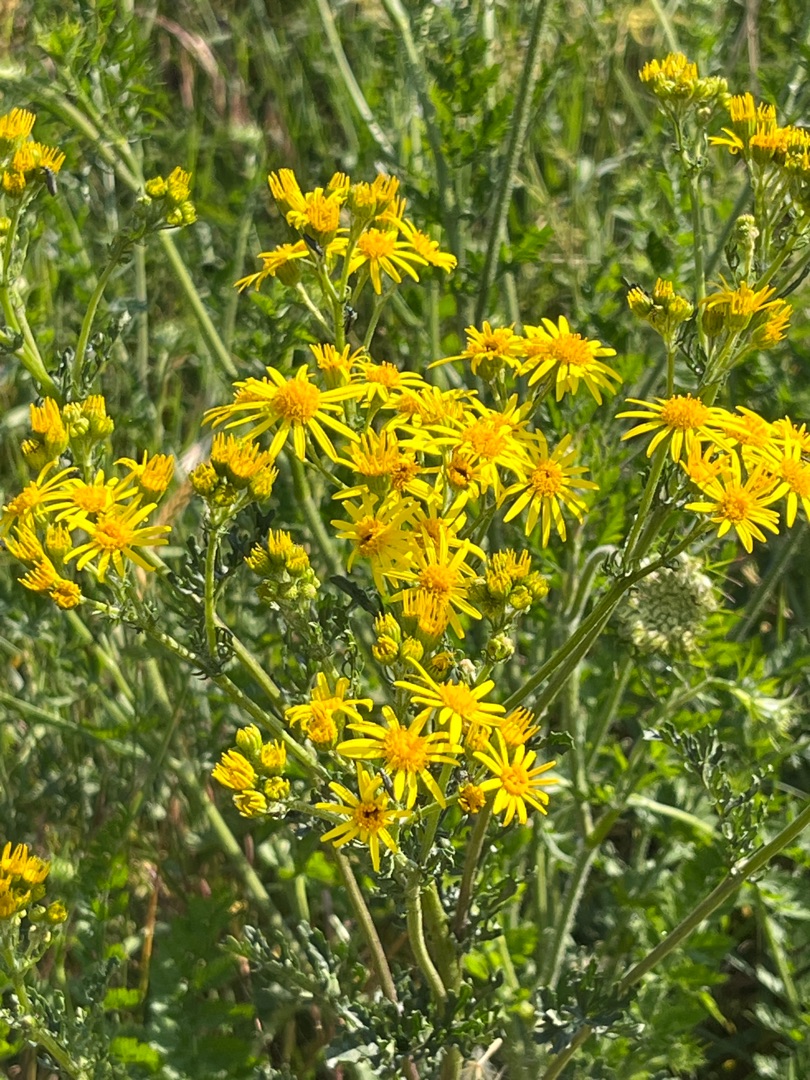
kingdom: Plantae
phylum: Tracheophyta
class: Magnoliopsida
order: Asterales
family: Asteraceae
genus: Jacobaea
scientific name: Jacobaea vulgaris
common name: Eng-brandbæger
